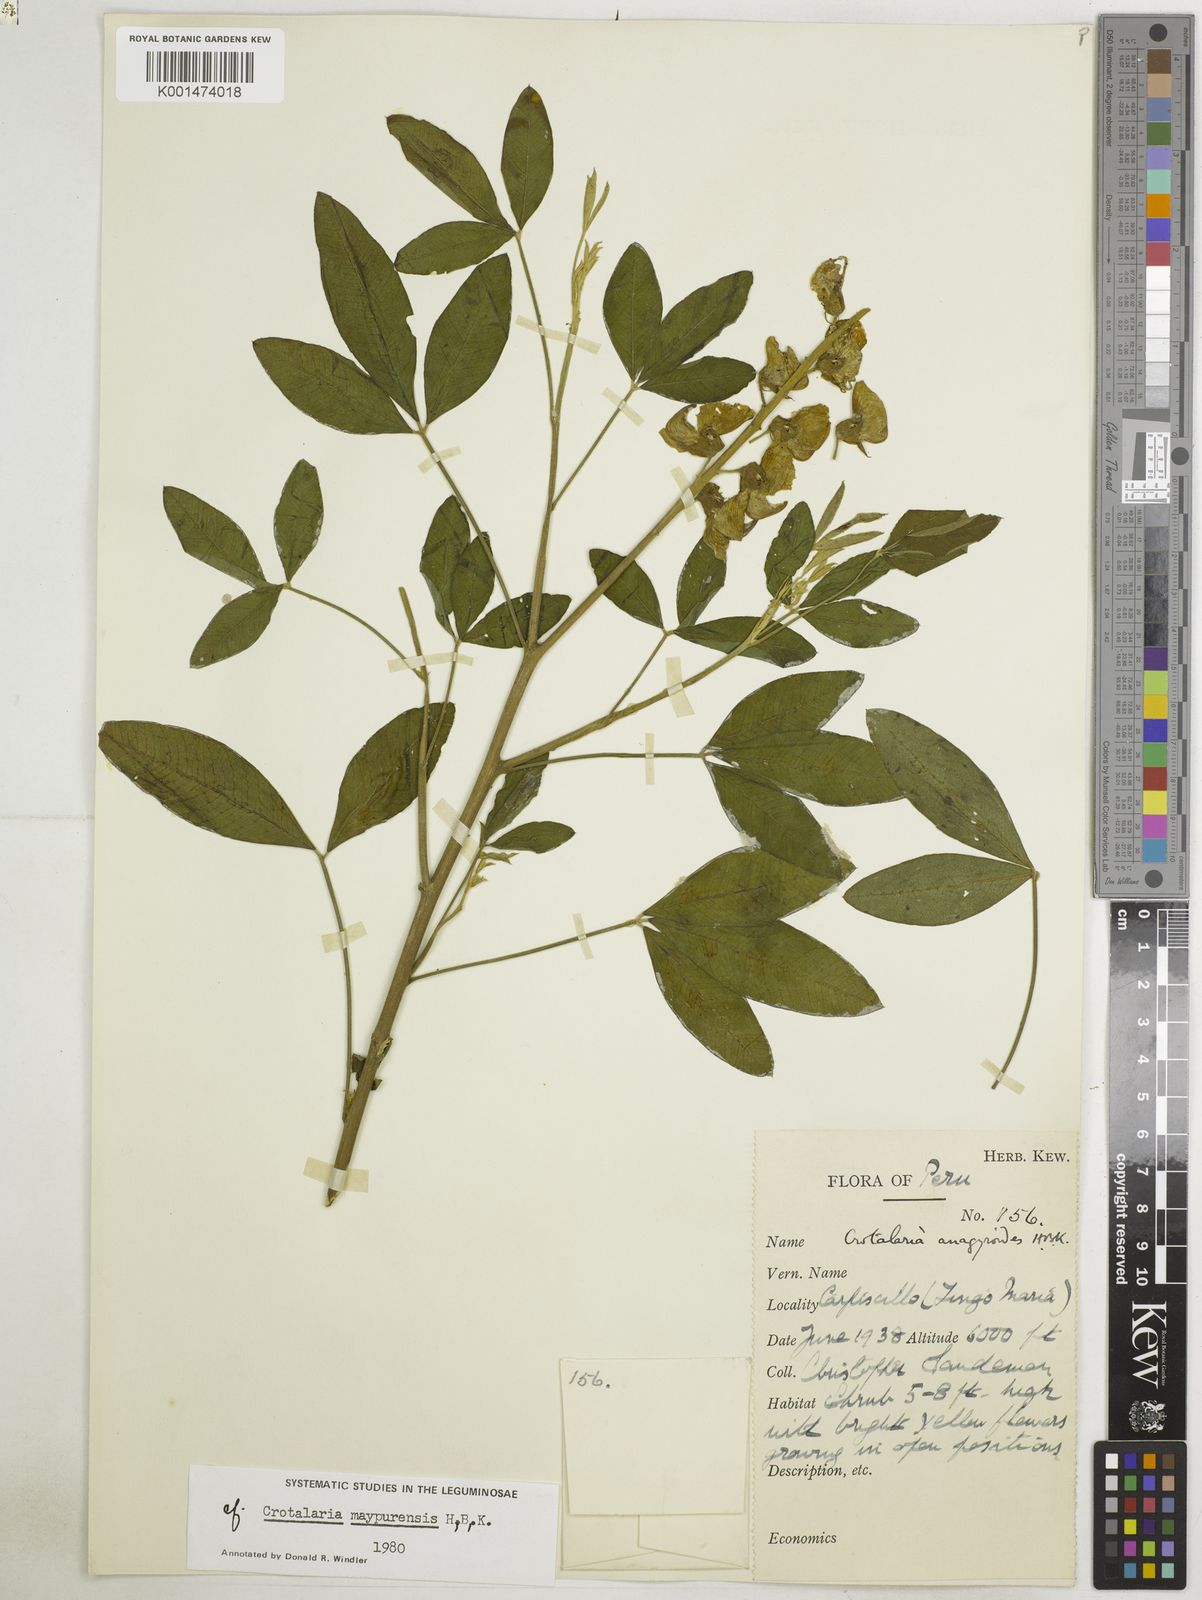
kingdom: Plantae
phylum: Tracheophyta
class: Magnoliopsida
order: Fabales
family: Fabaceae
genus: Crotalaria
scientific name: Crotalaria maypurensis
